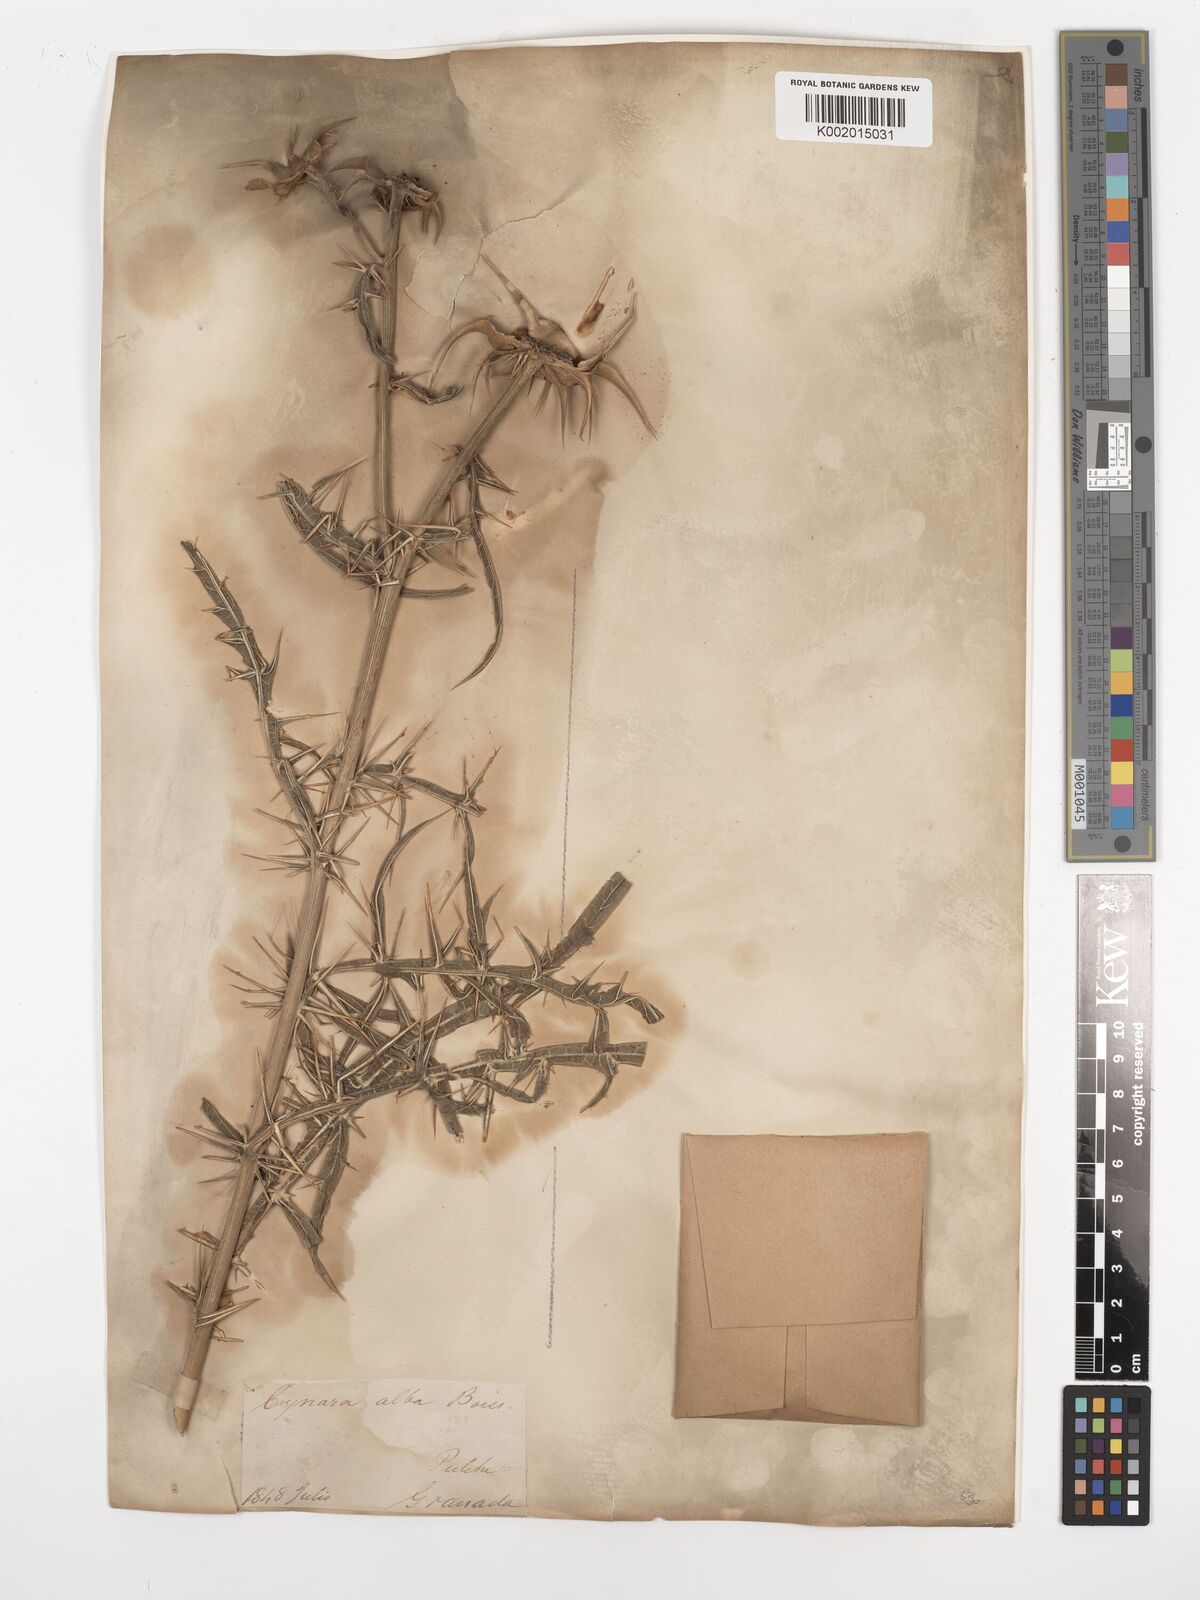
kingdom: Plantae
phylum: Tracheophyta
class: Magnoliopsida
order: Asterales
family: Asteraceae
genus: Cynara
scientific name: Cynara baetica
